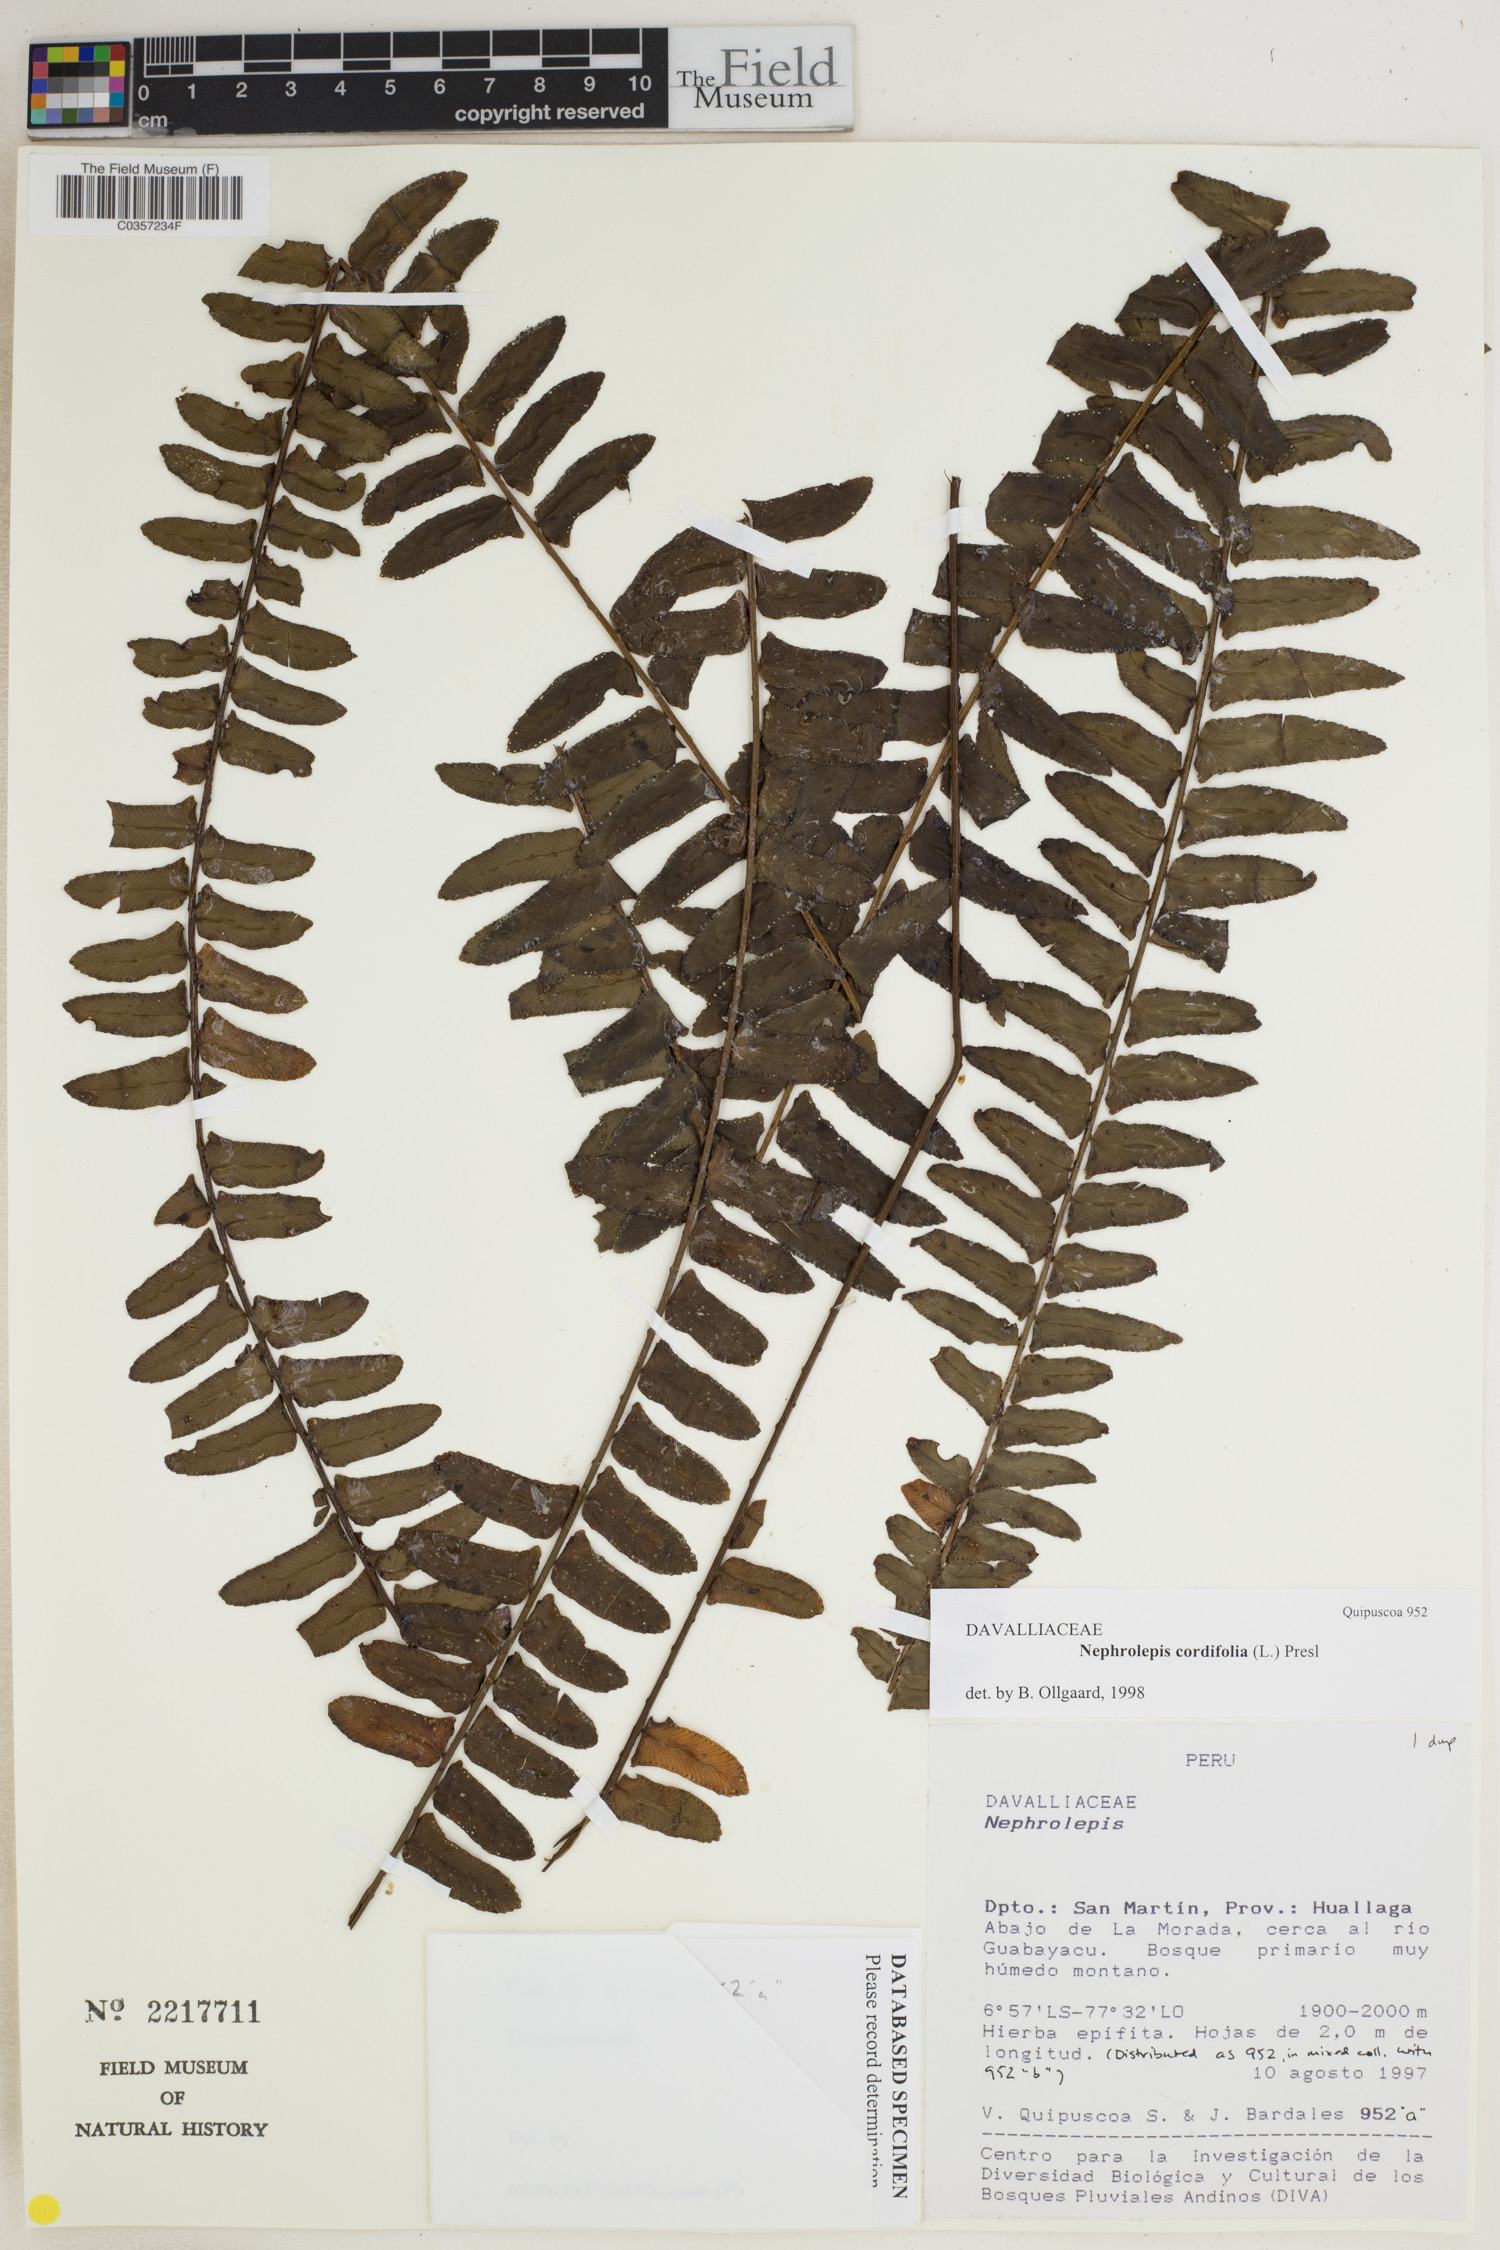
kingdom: Plantae
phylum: Tracheophyta
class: Polypodiopsida
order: Polypodiales
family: Nephrolepidaceae
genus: Nephrolepis
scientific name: Nephrolepis cordifolia
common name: Narrow swordfern
